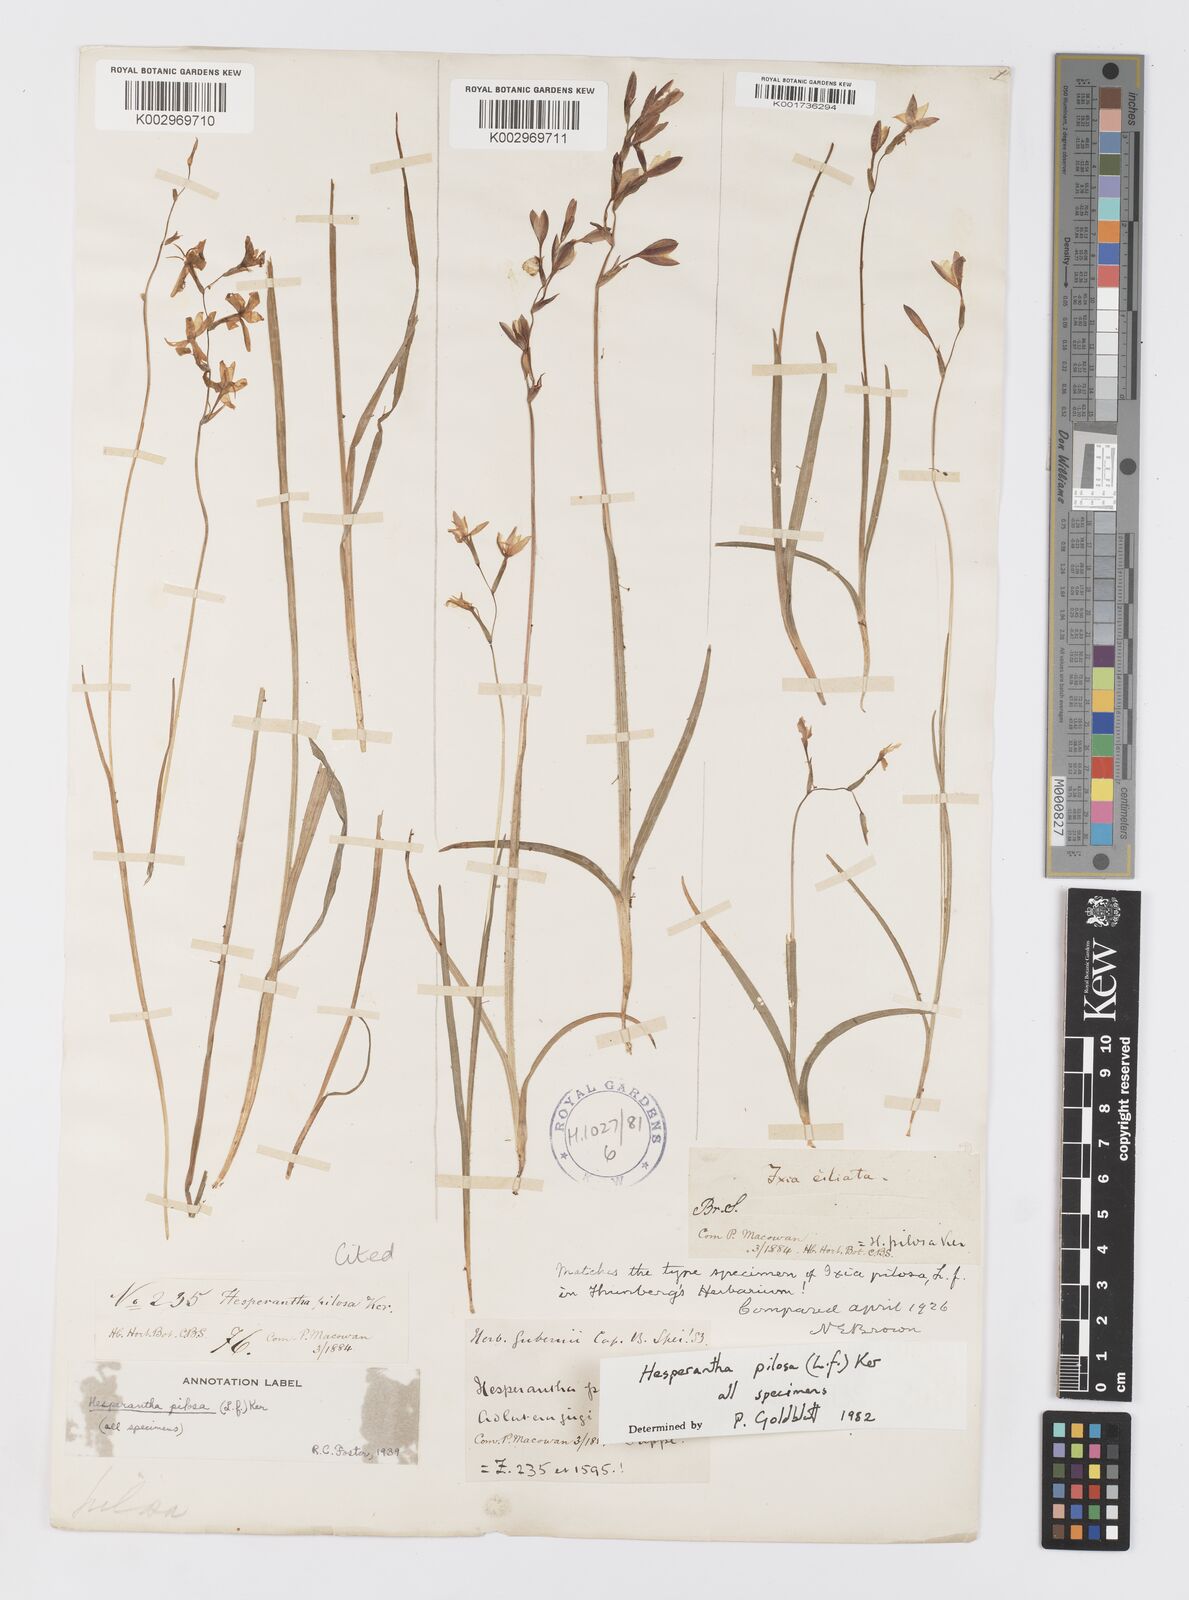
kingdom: Plantae
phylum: Tracheophyta
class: Liliopsida
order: Asparagales
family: Iridaceae
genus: Hesperantha
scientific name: Hesperantha pilosa
